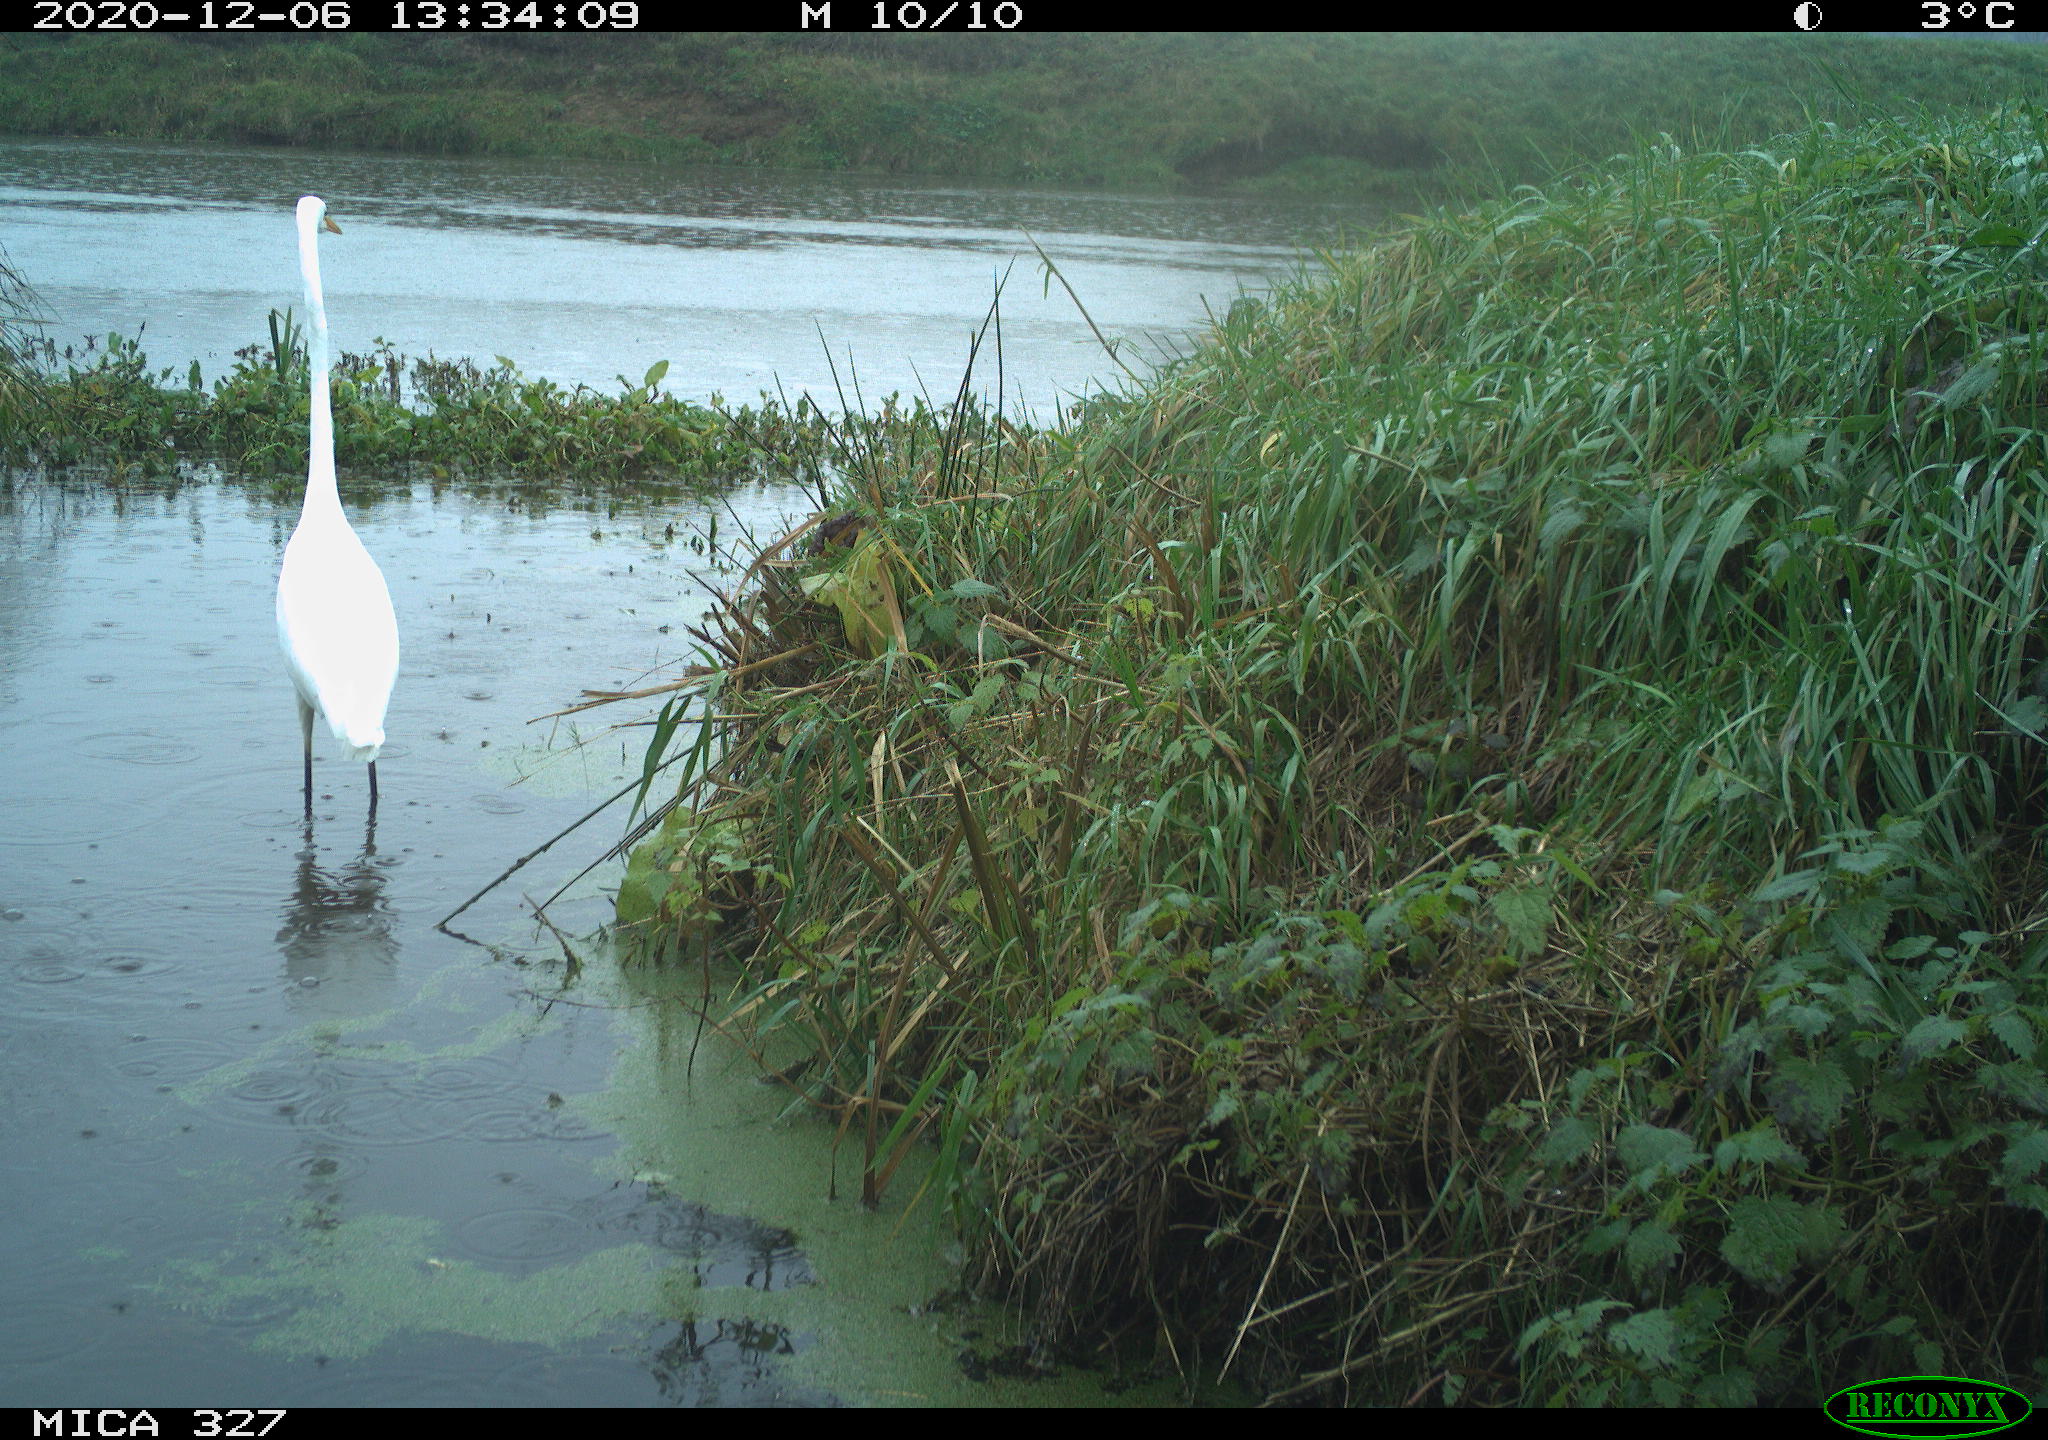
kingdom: Animalia
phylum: Chordata
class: Aves
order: Pelecaniformes
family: Ardeidae
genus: Ardea
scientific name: Ardea alba
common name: Great egret
